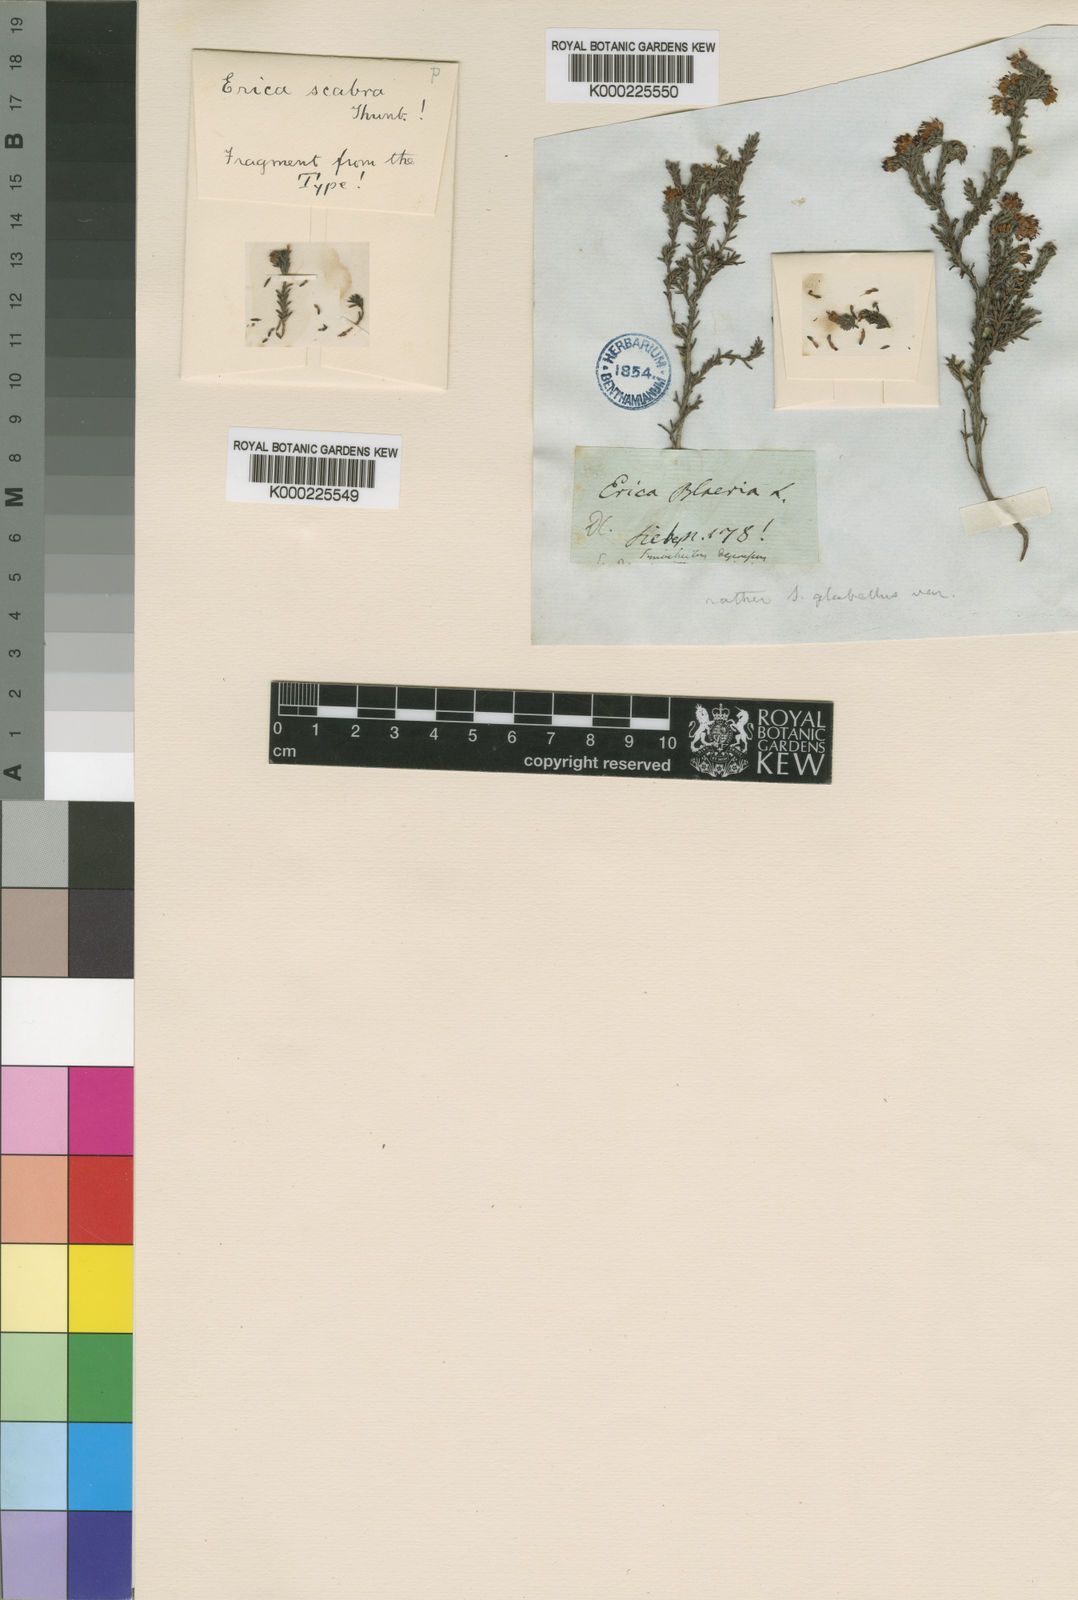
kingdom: Plantae
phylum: Tracheophyta
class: Magnoliopsida
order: Ericales
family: Ericaceae
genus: Erica
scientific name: Erica glabella
